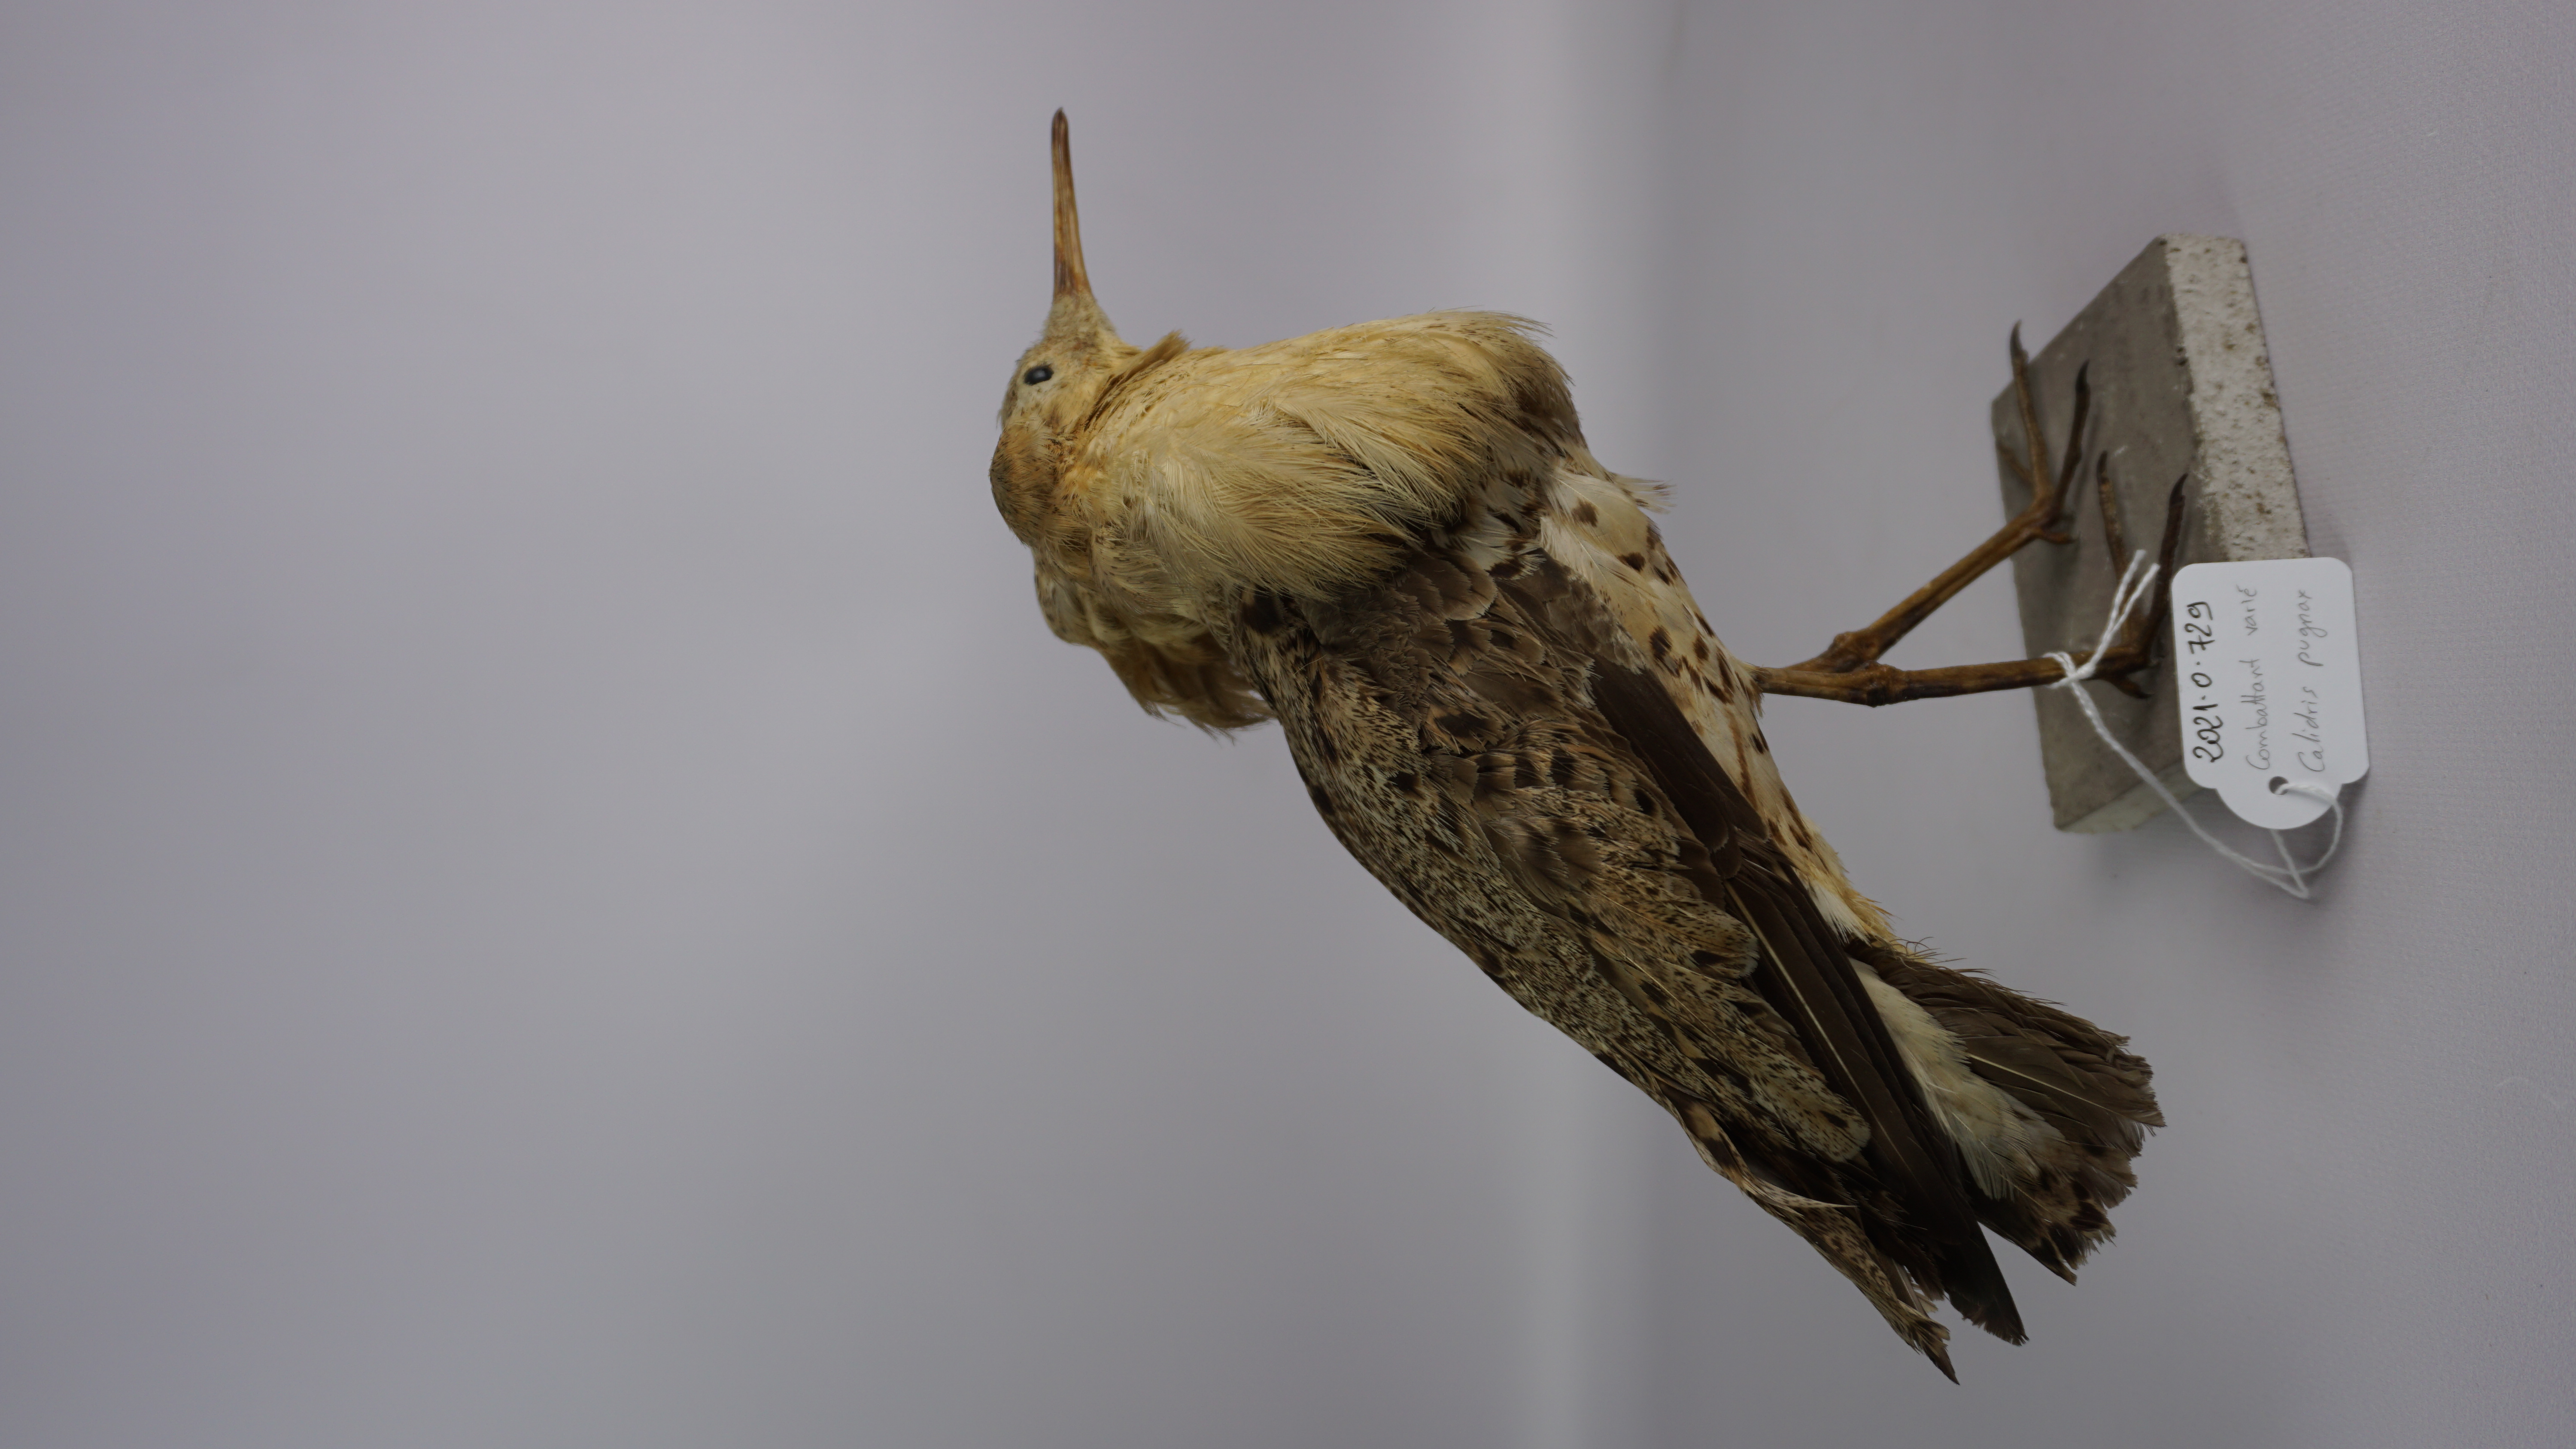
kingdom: Animalia
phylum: Chordata
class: Aves
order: Charadriiformes
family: Scolopacidae
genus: Calidris
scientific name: Calidris pugnax
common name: Ruff
